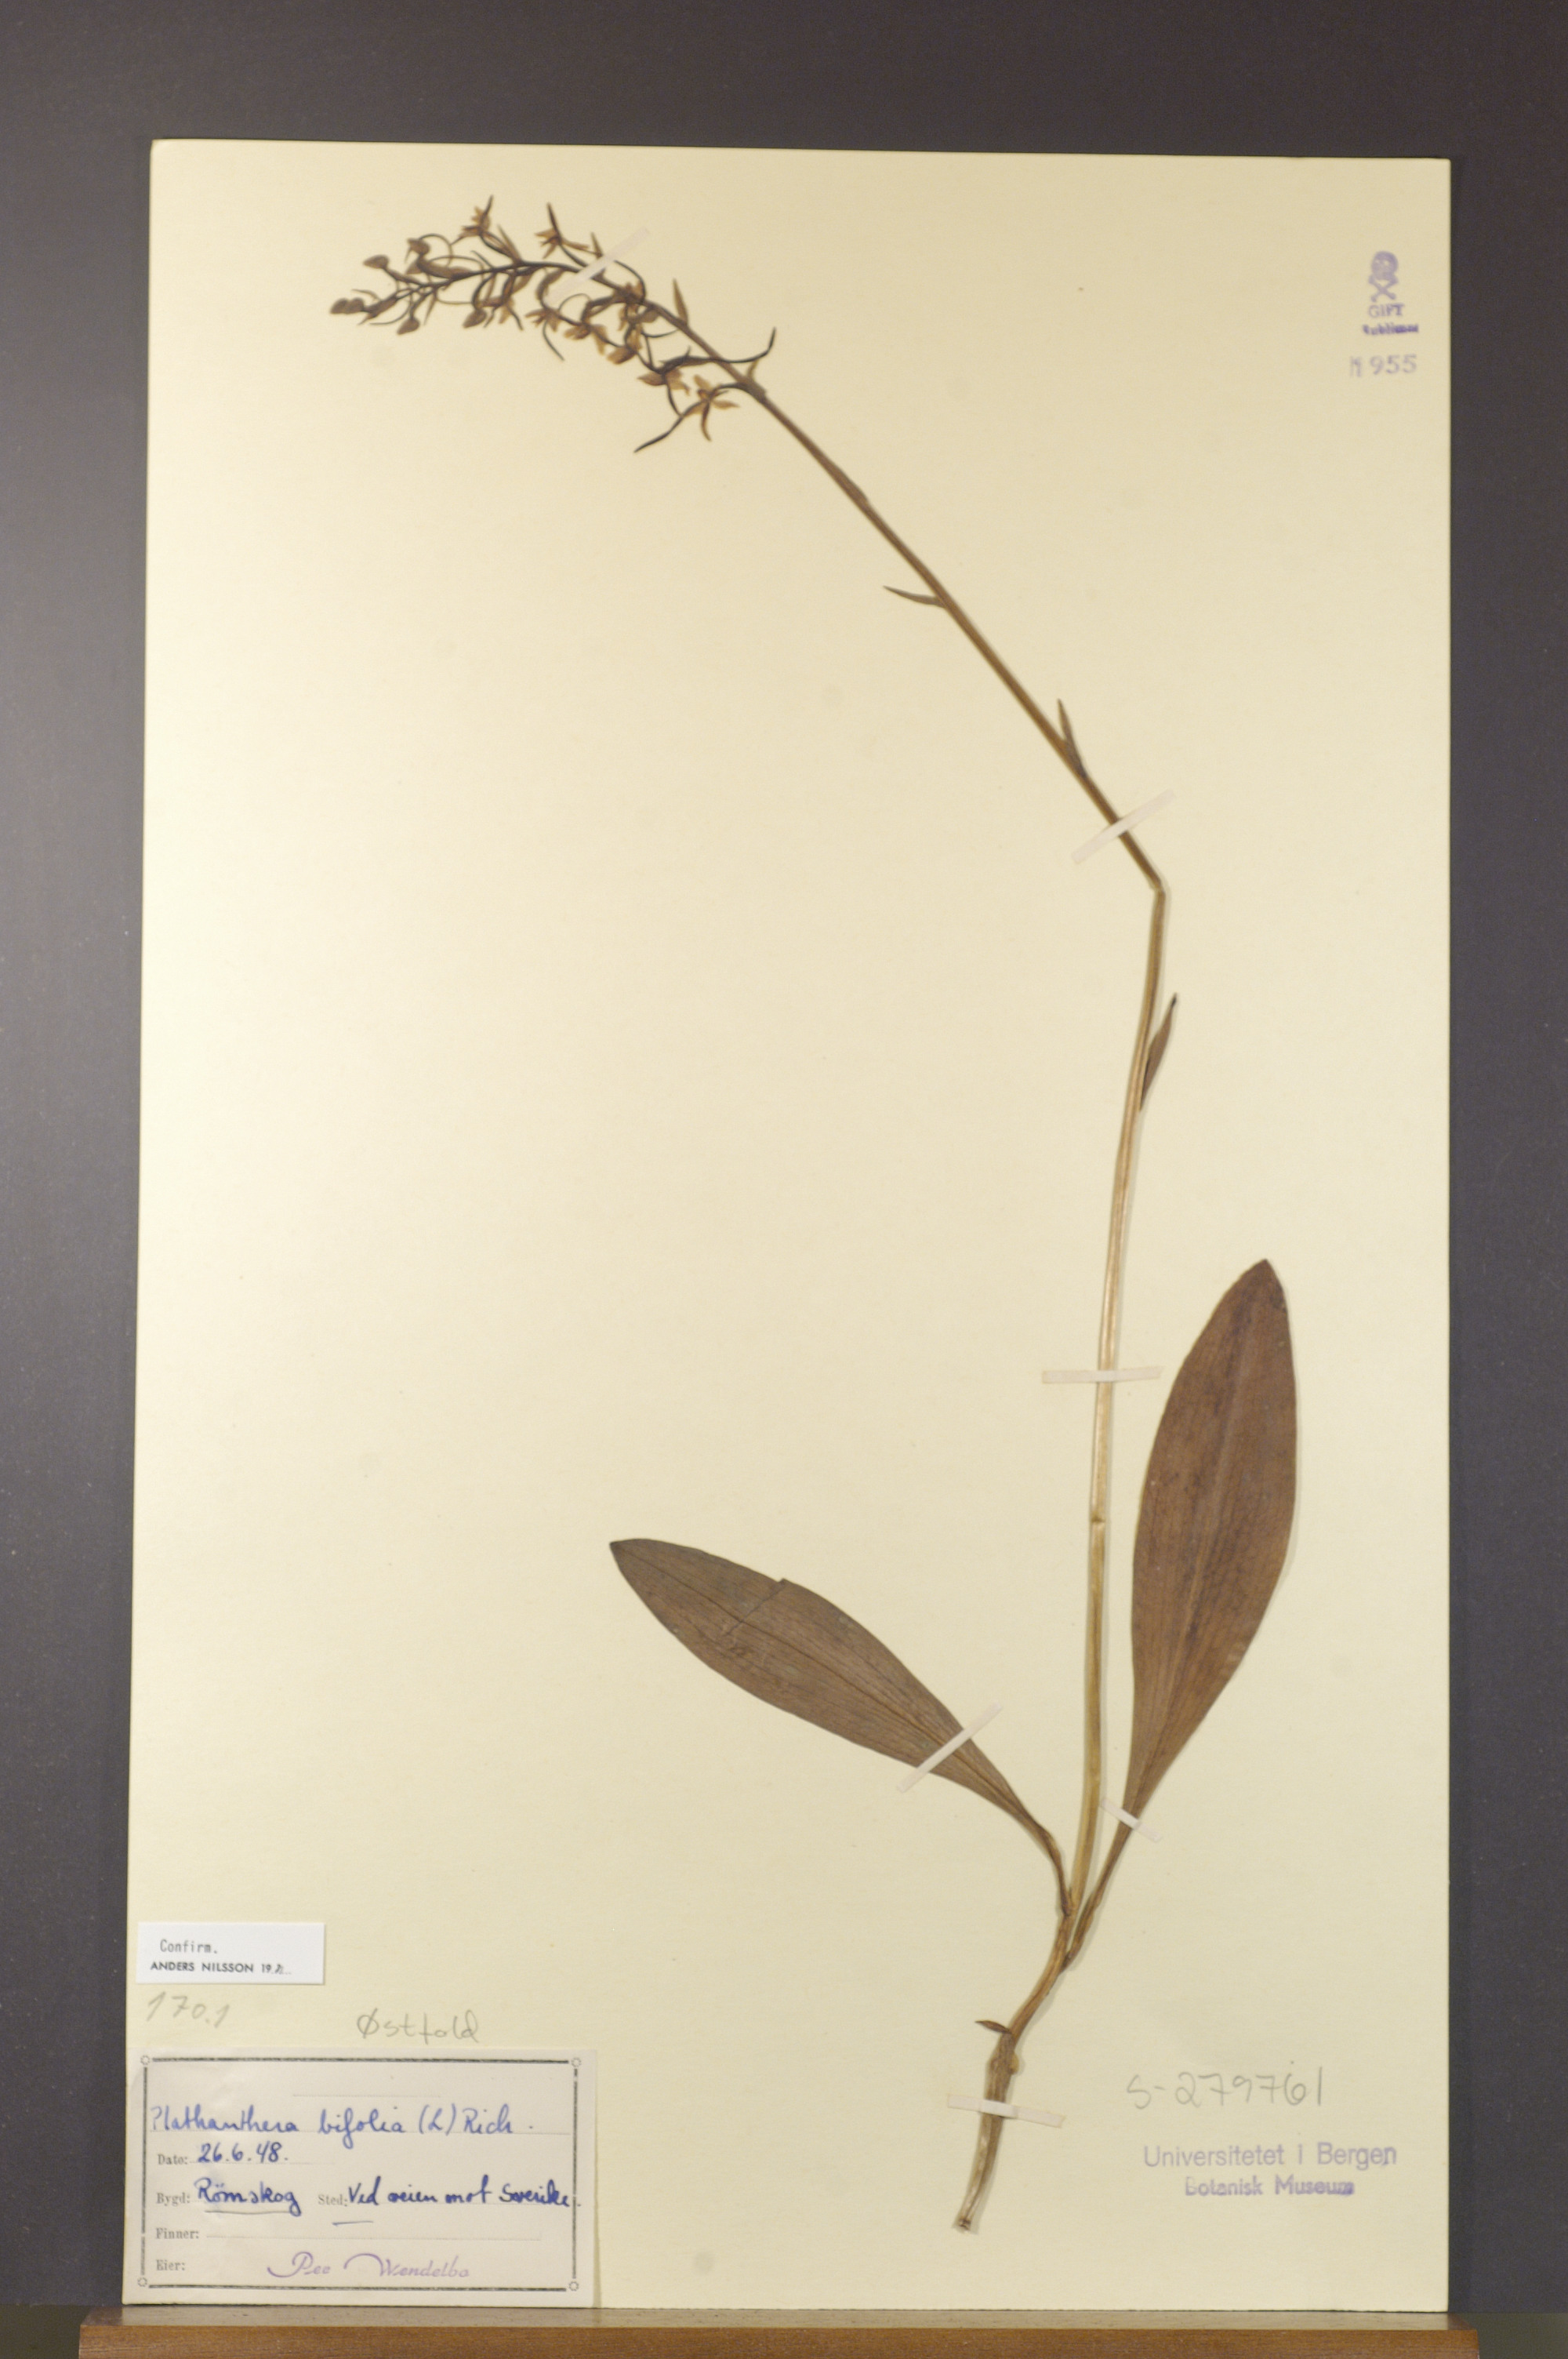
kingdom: Plantae
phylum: Tracheophyta
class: Liliopsida
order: Asparagales
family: Orchidaceae
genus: Platanthera
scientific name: Platanthera bifolia
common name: Lesser butterfly-orchid
